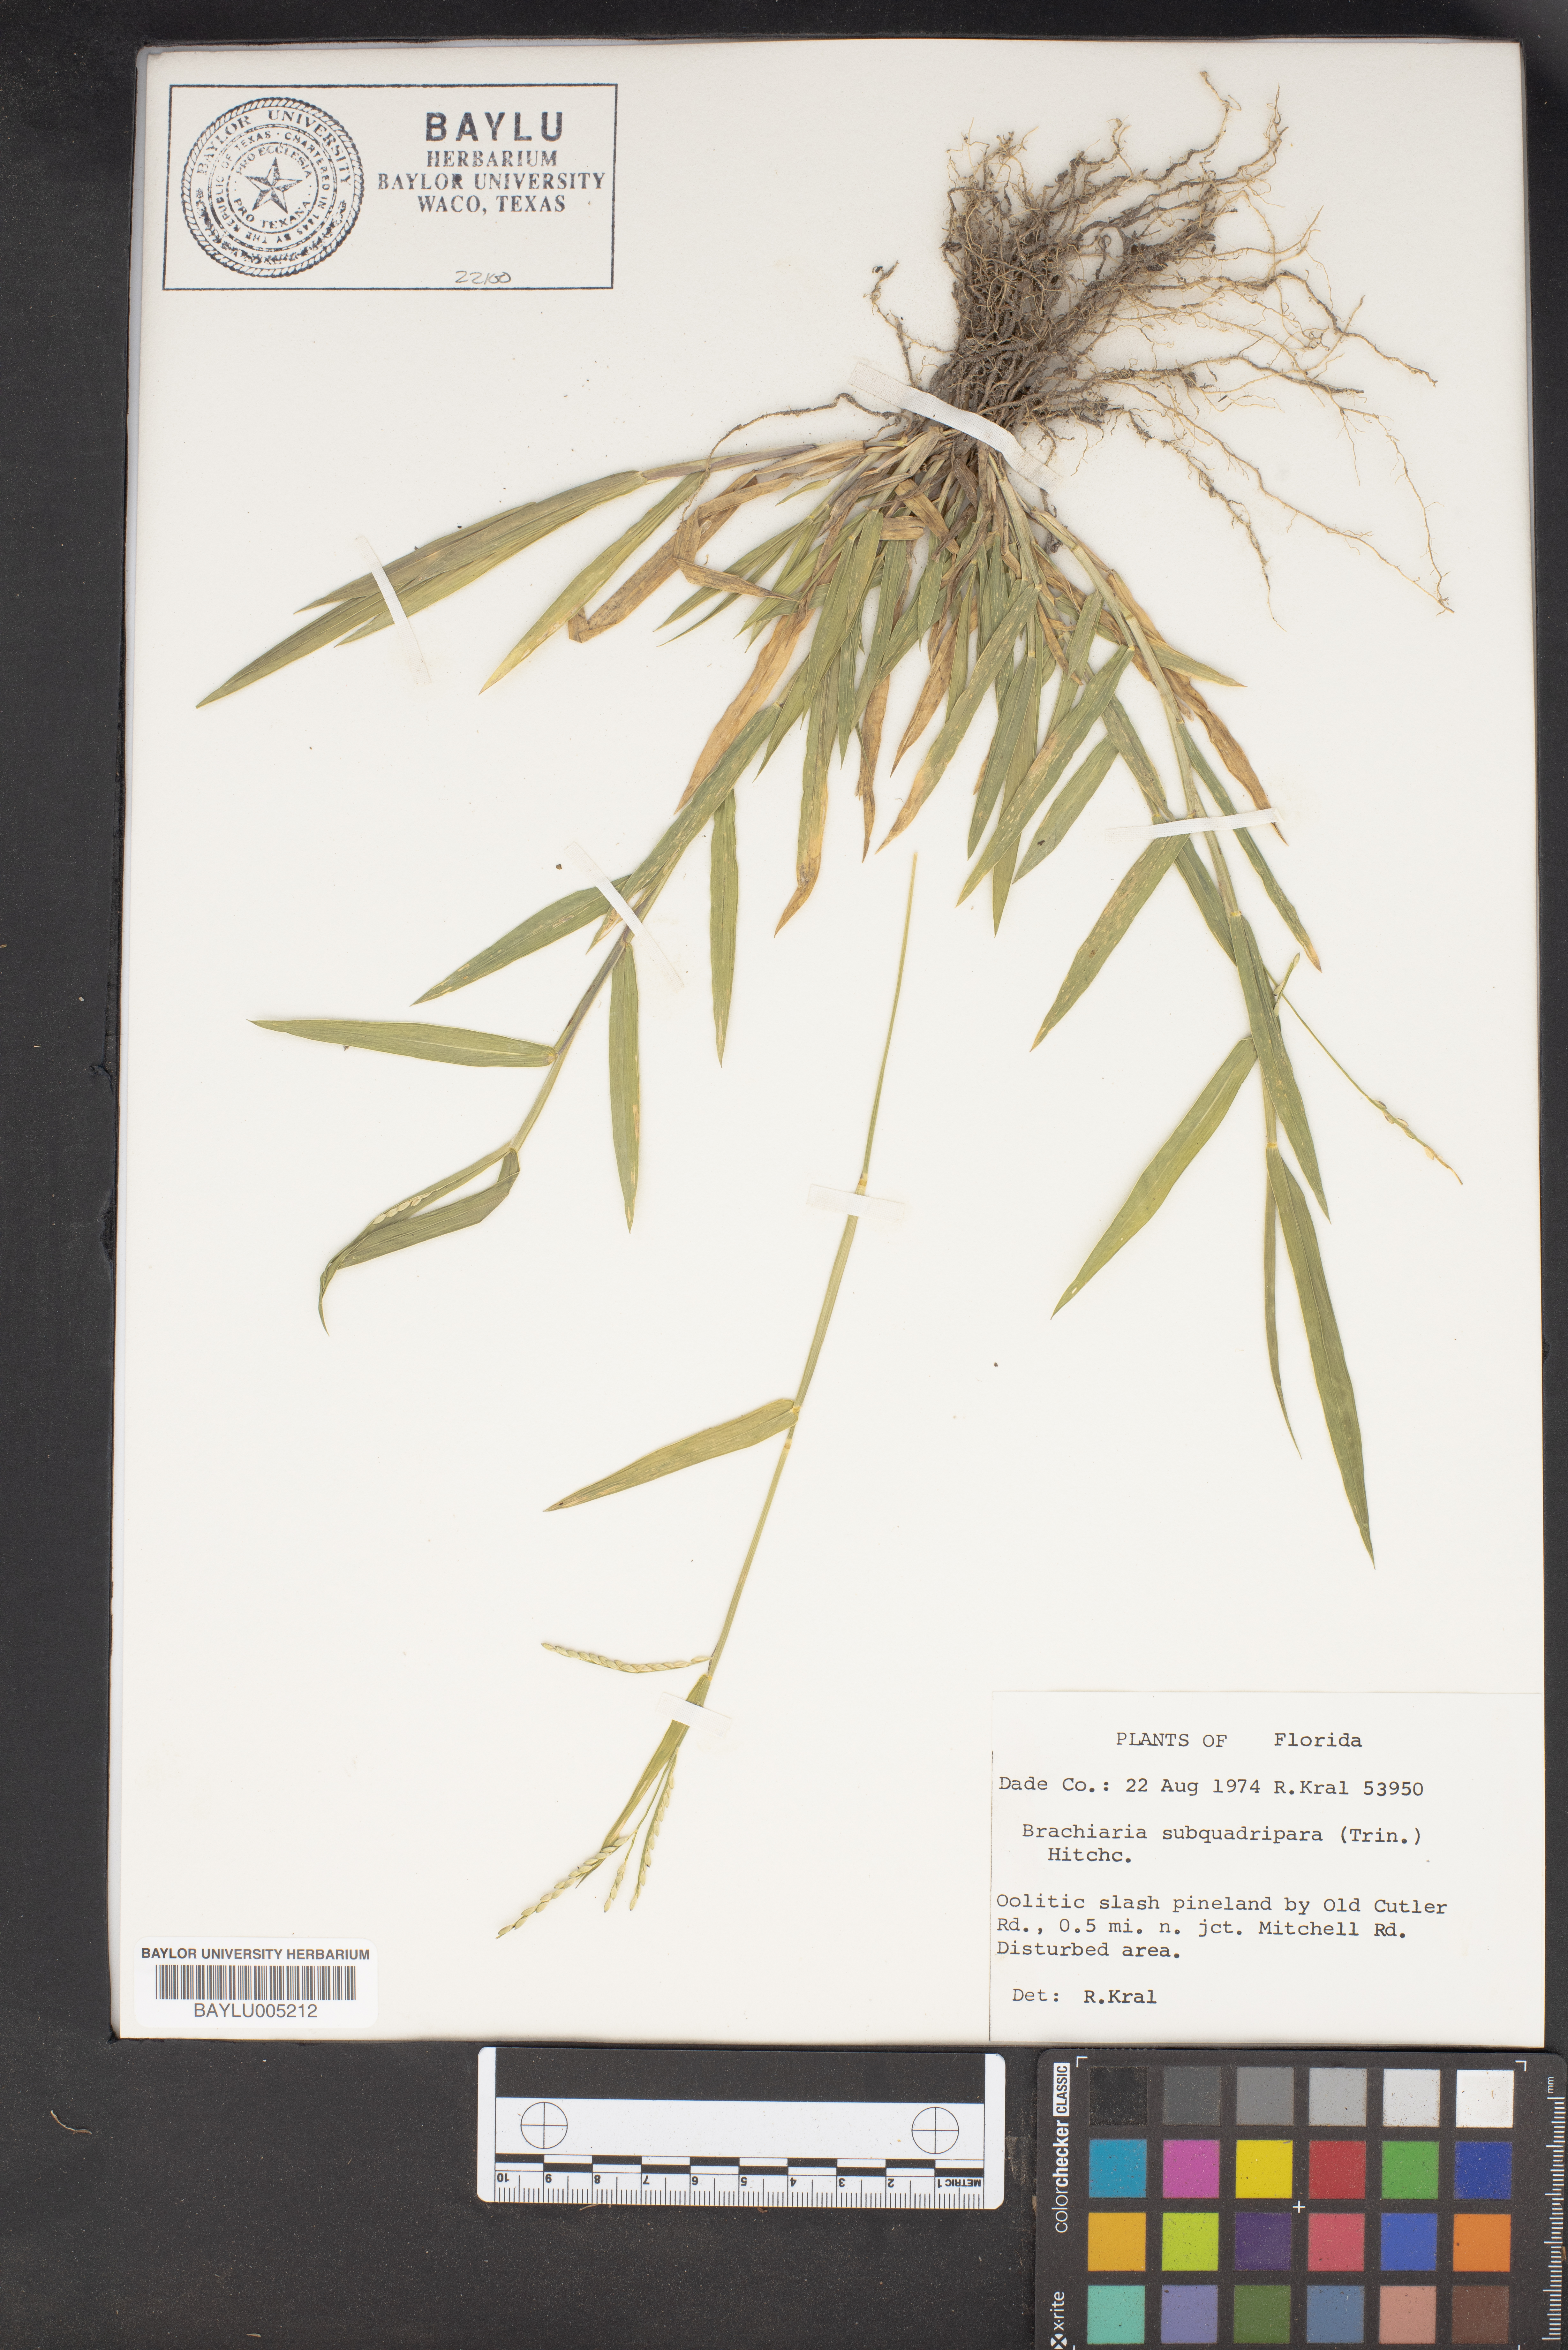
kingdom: Plantae
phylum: Tracheophyta
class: Liliopsida
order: Poales
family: Poaceae
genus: Urochloa
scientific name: Urochloa subquadripara
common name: Armgrass millet
